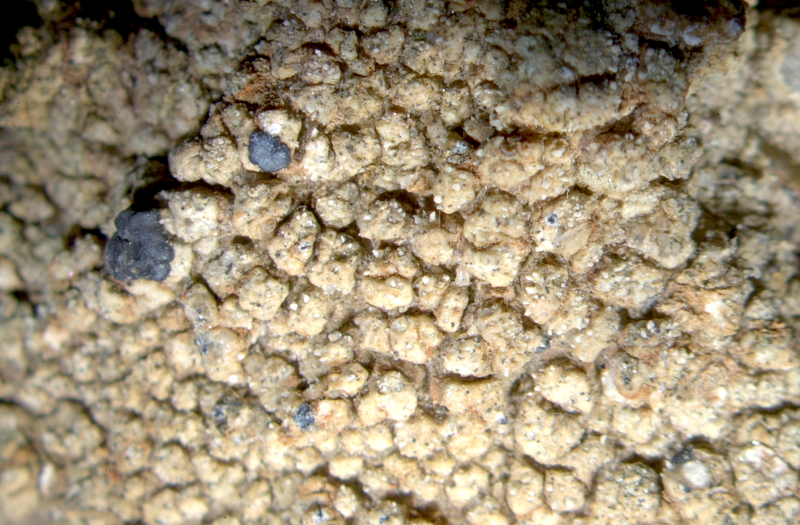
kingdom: Fungi
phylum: Ascomycota
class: Lecanoromycetes
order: Lecanorales
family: Lecanoraceae
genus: Lecidella
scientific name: Lecidella
